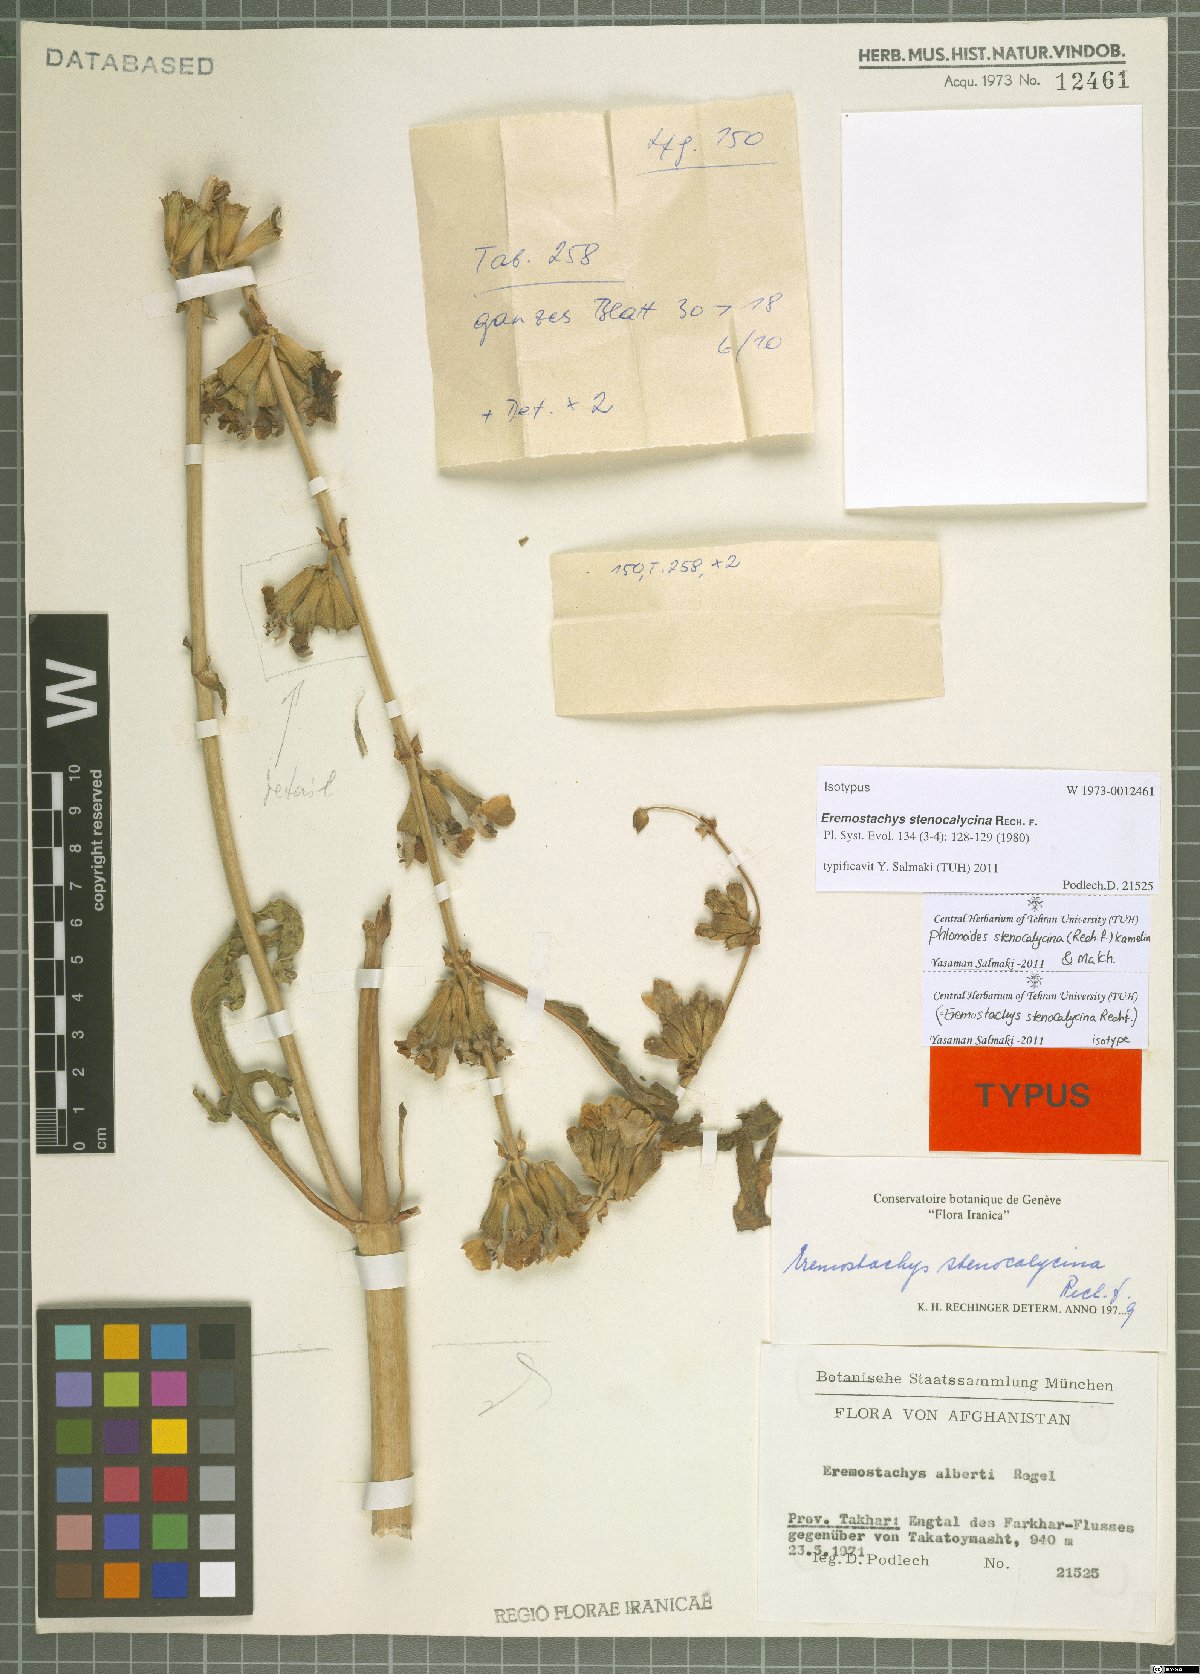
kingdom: Plantae
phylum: Tracheophyta
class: Magnoliopsida
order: Lamiales
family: Lamiaceae
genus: Phlomoides
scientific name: Phlomoides stenocalycina
